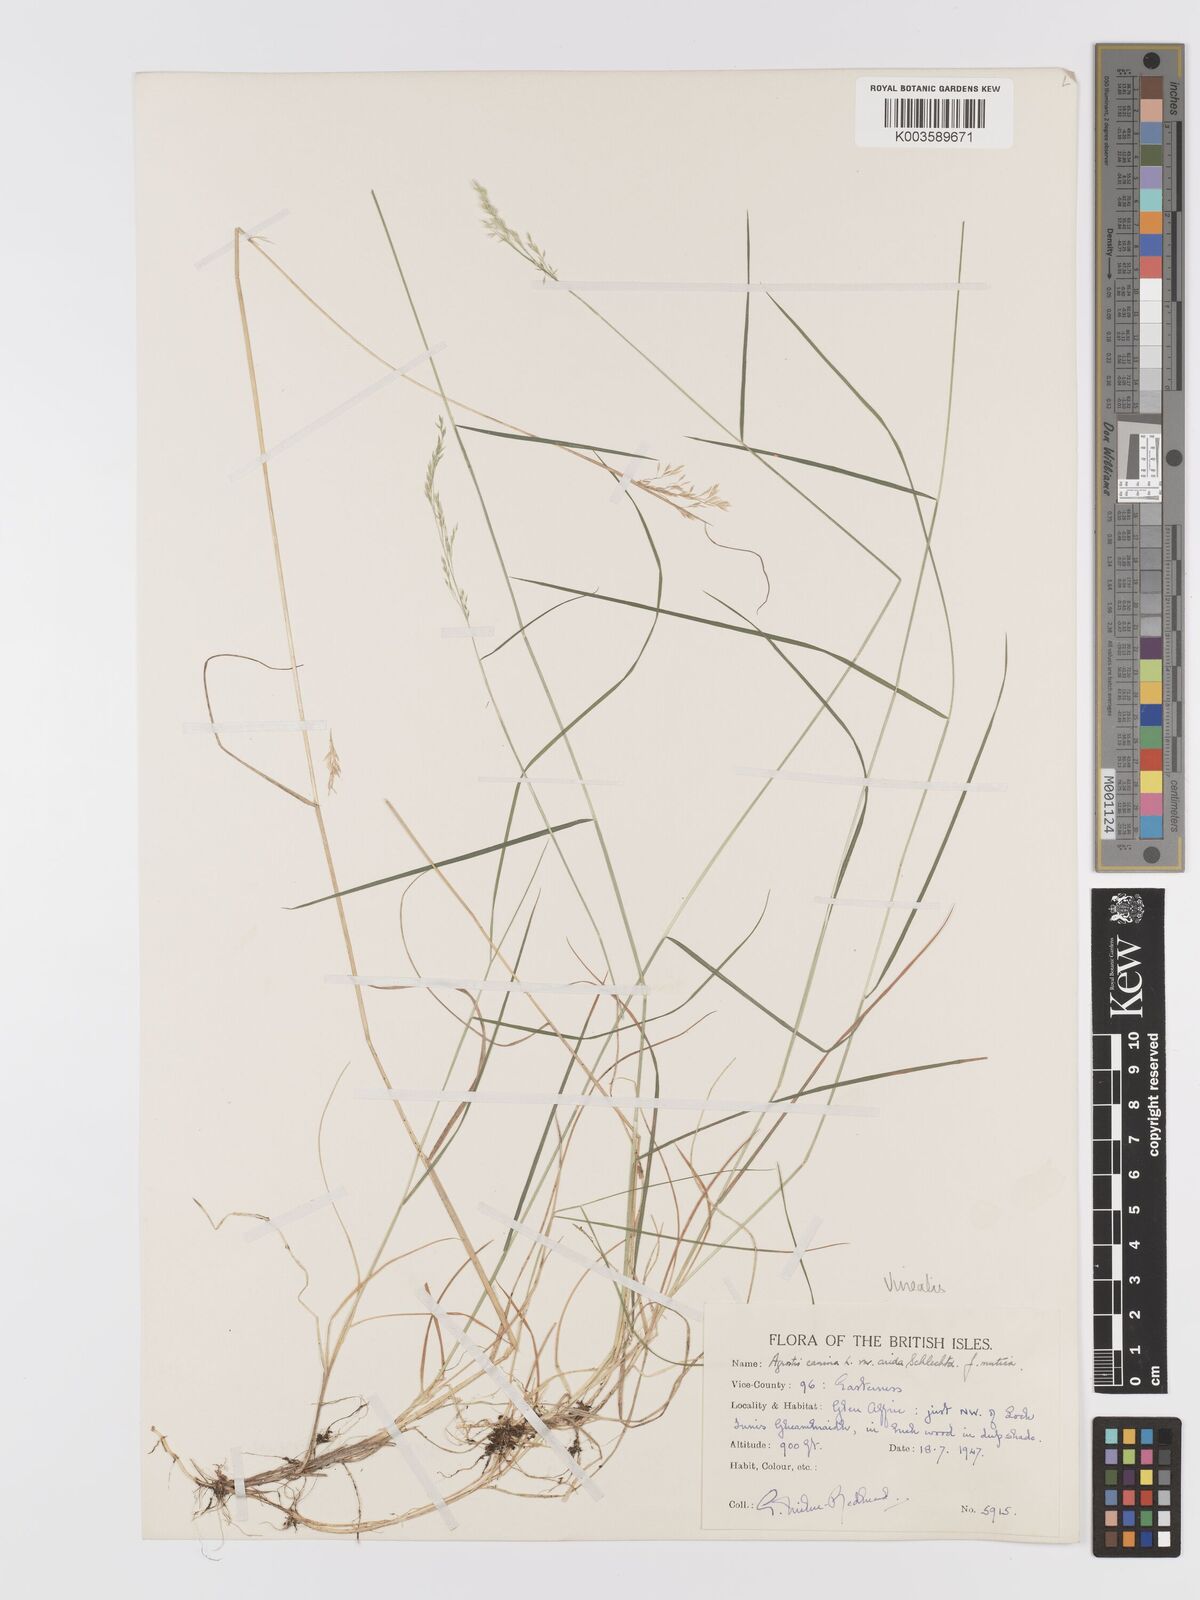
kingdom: Plantae
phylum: Tracheophyta
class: Liliopsida
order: Poales
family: Poaceae
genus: Agrostis
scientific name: Agrostis
